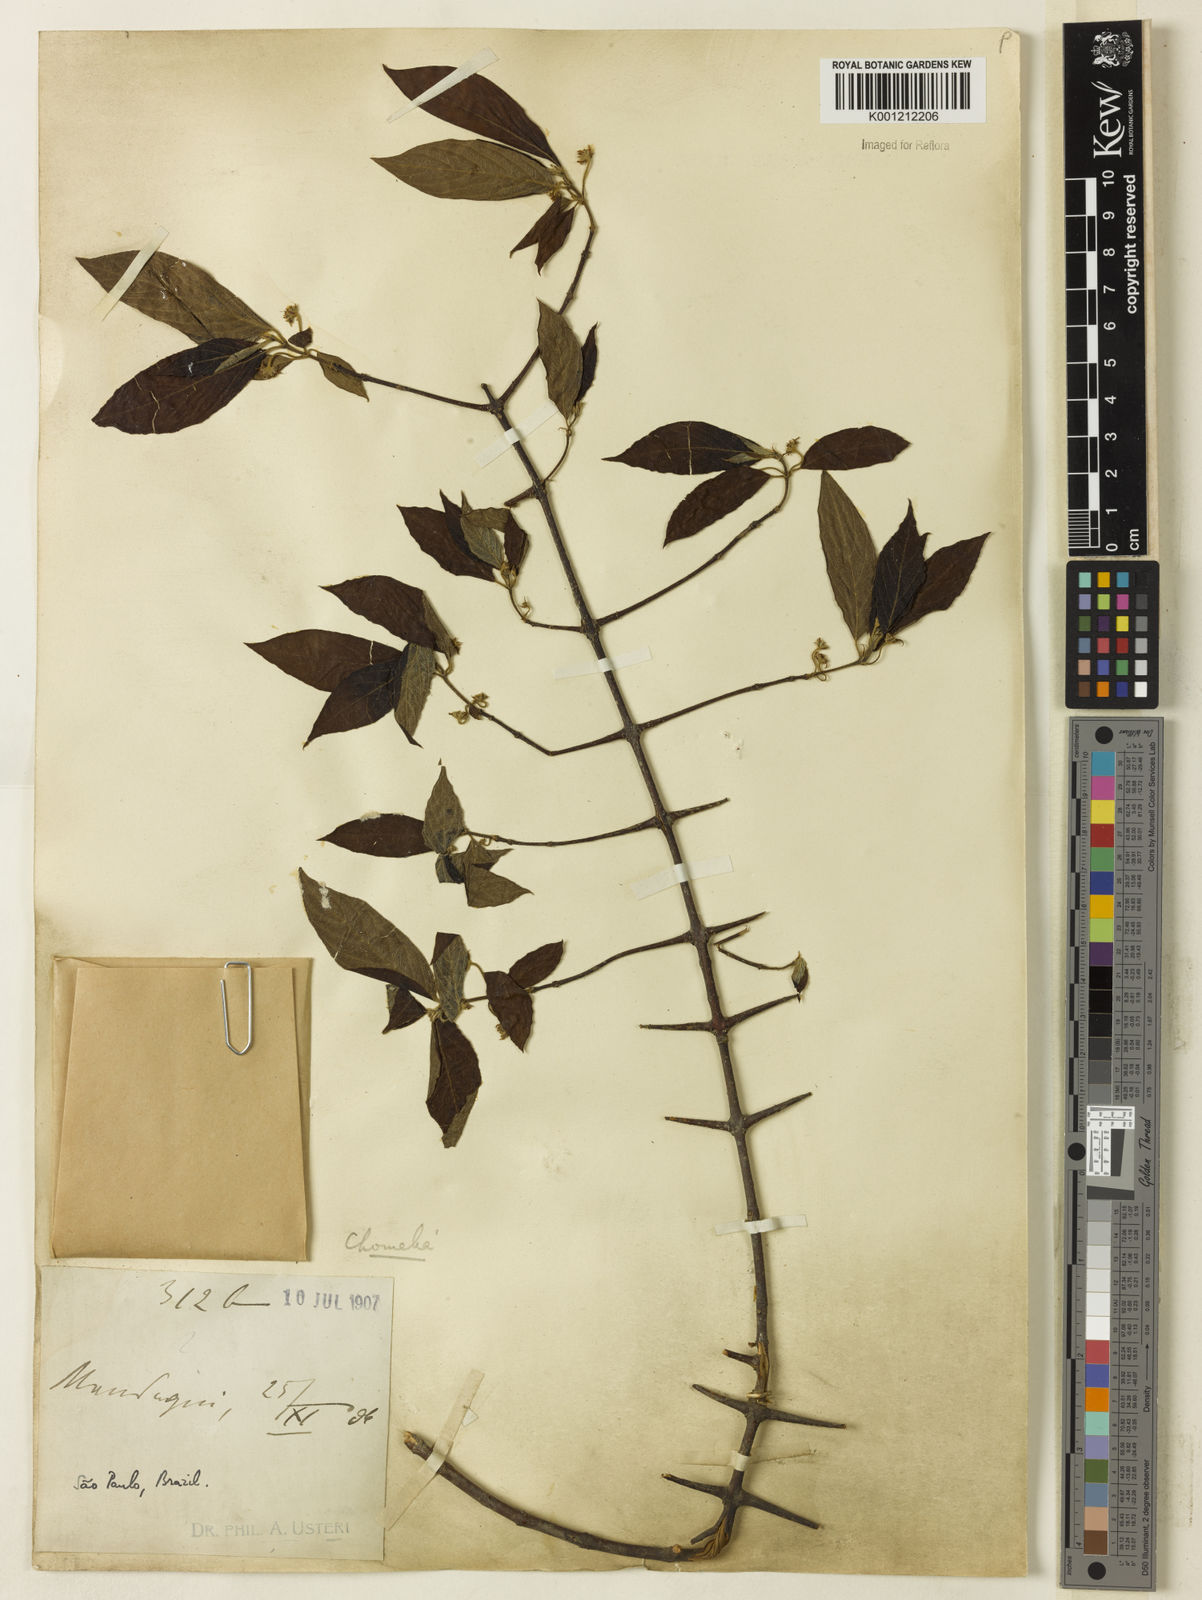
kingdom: Plantae
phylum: Tracheophyta
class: Magnoliopsida
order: Gentianales
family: Rubiaceae
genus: Chomelia
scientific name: Chomelia
